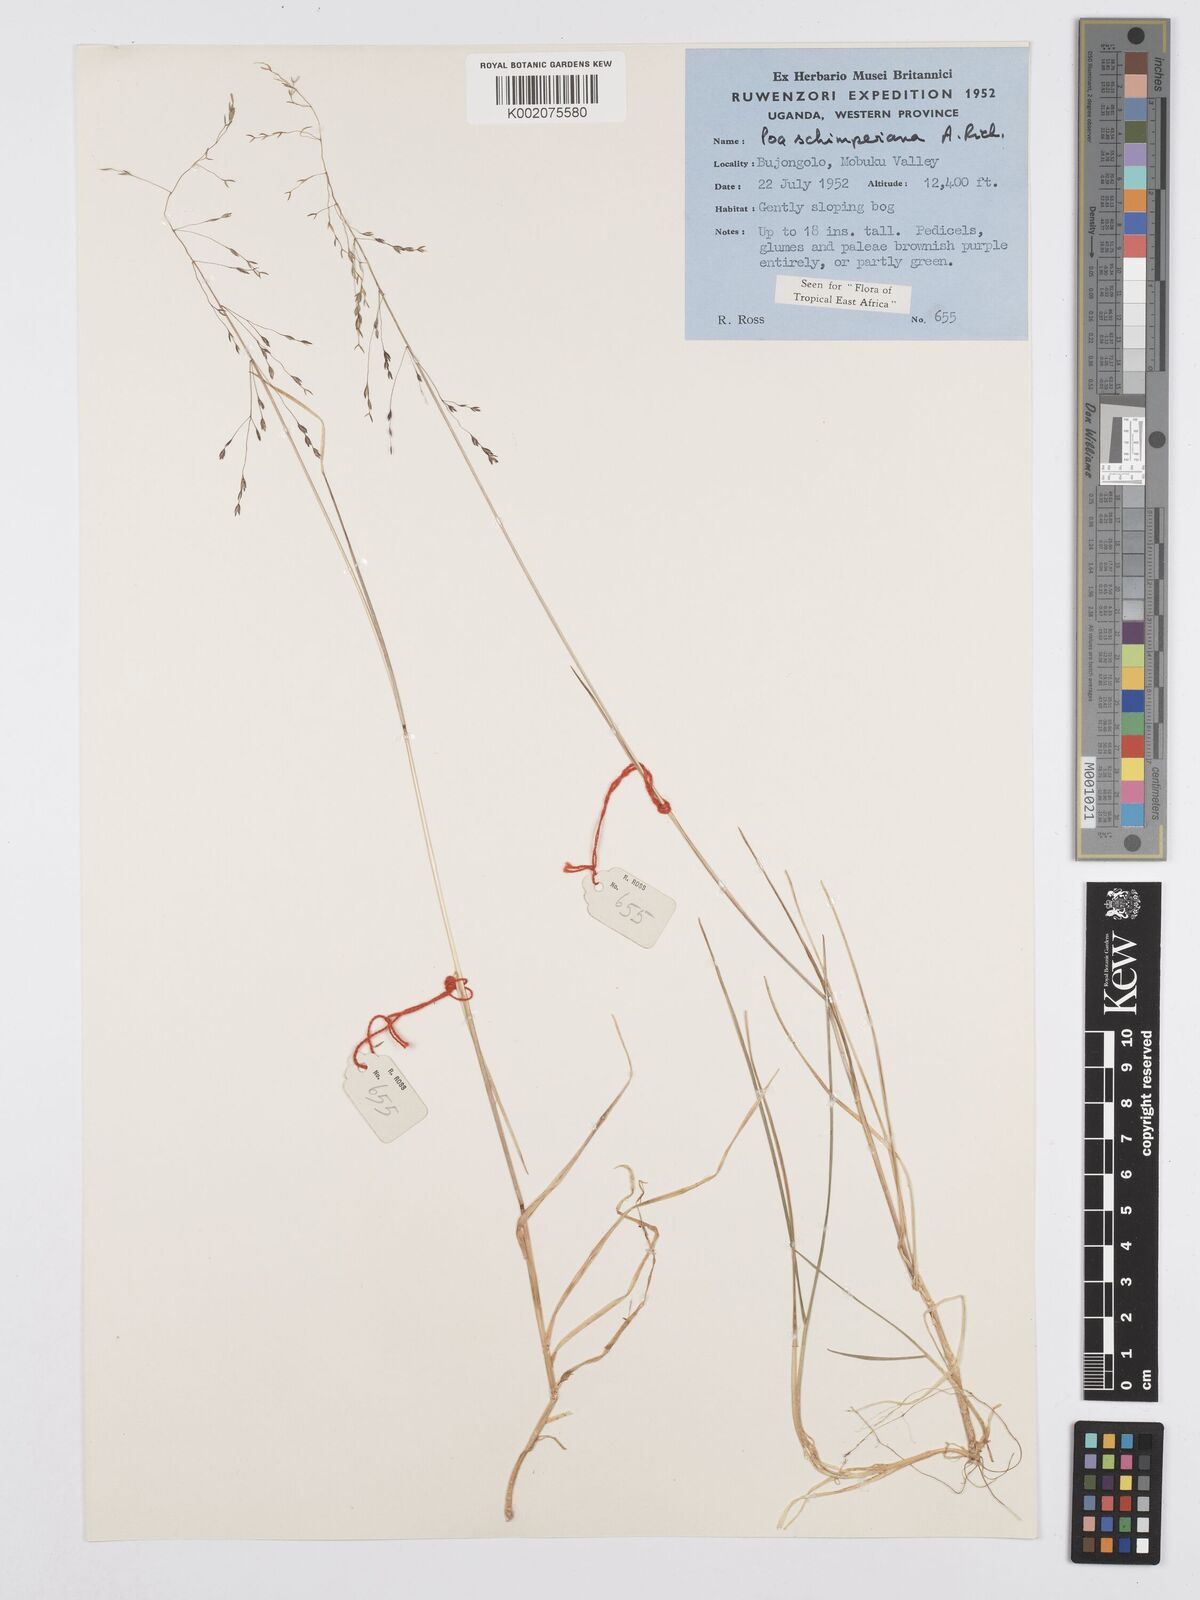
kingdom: Plantae
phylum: Tracheophyta
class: Liliopsida
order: Poales
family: Poaceae
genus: Poa
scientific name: Poa schimperiana
